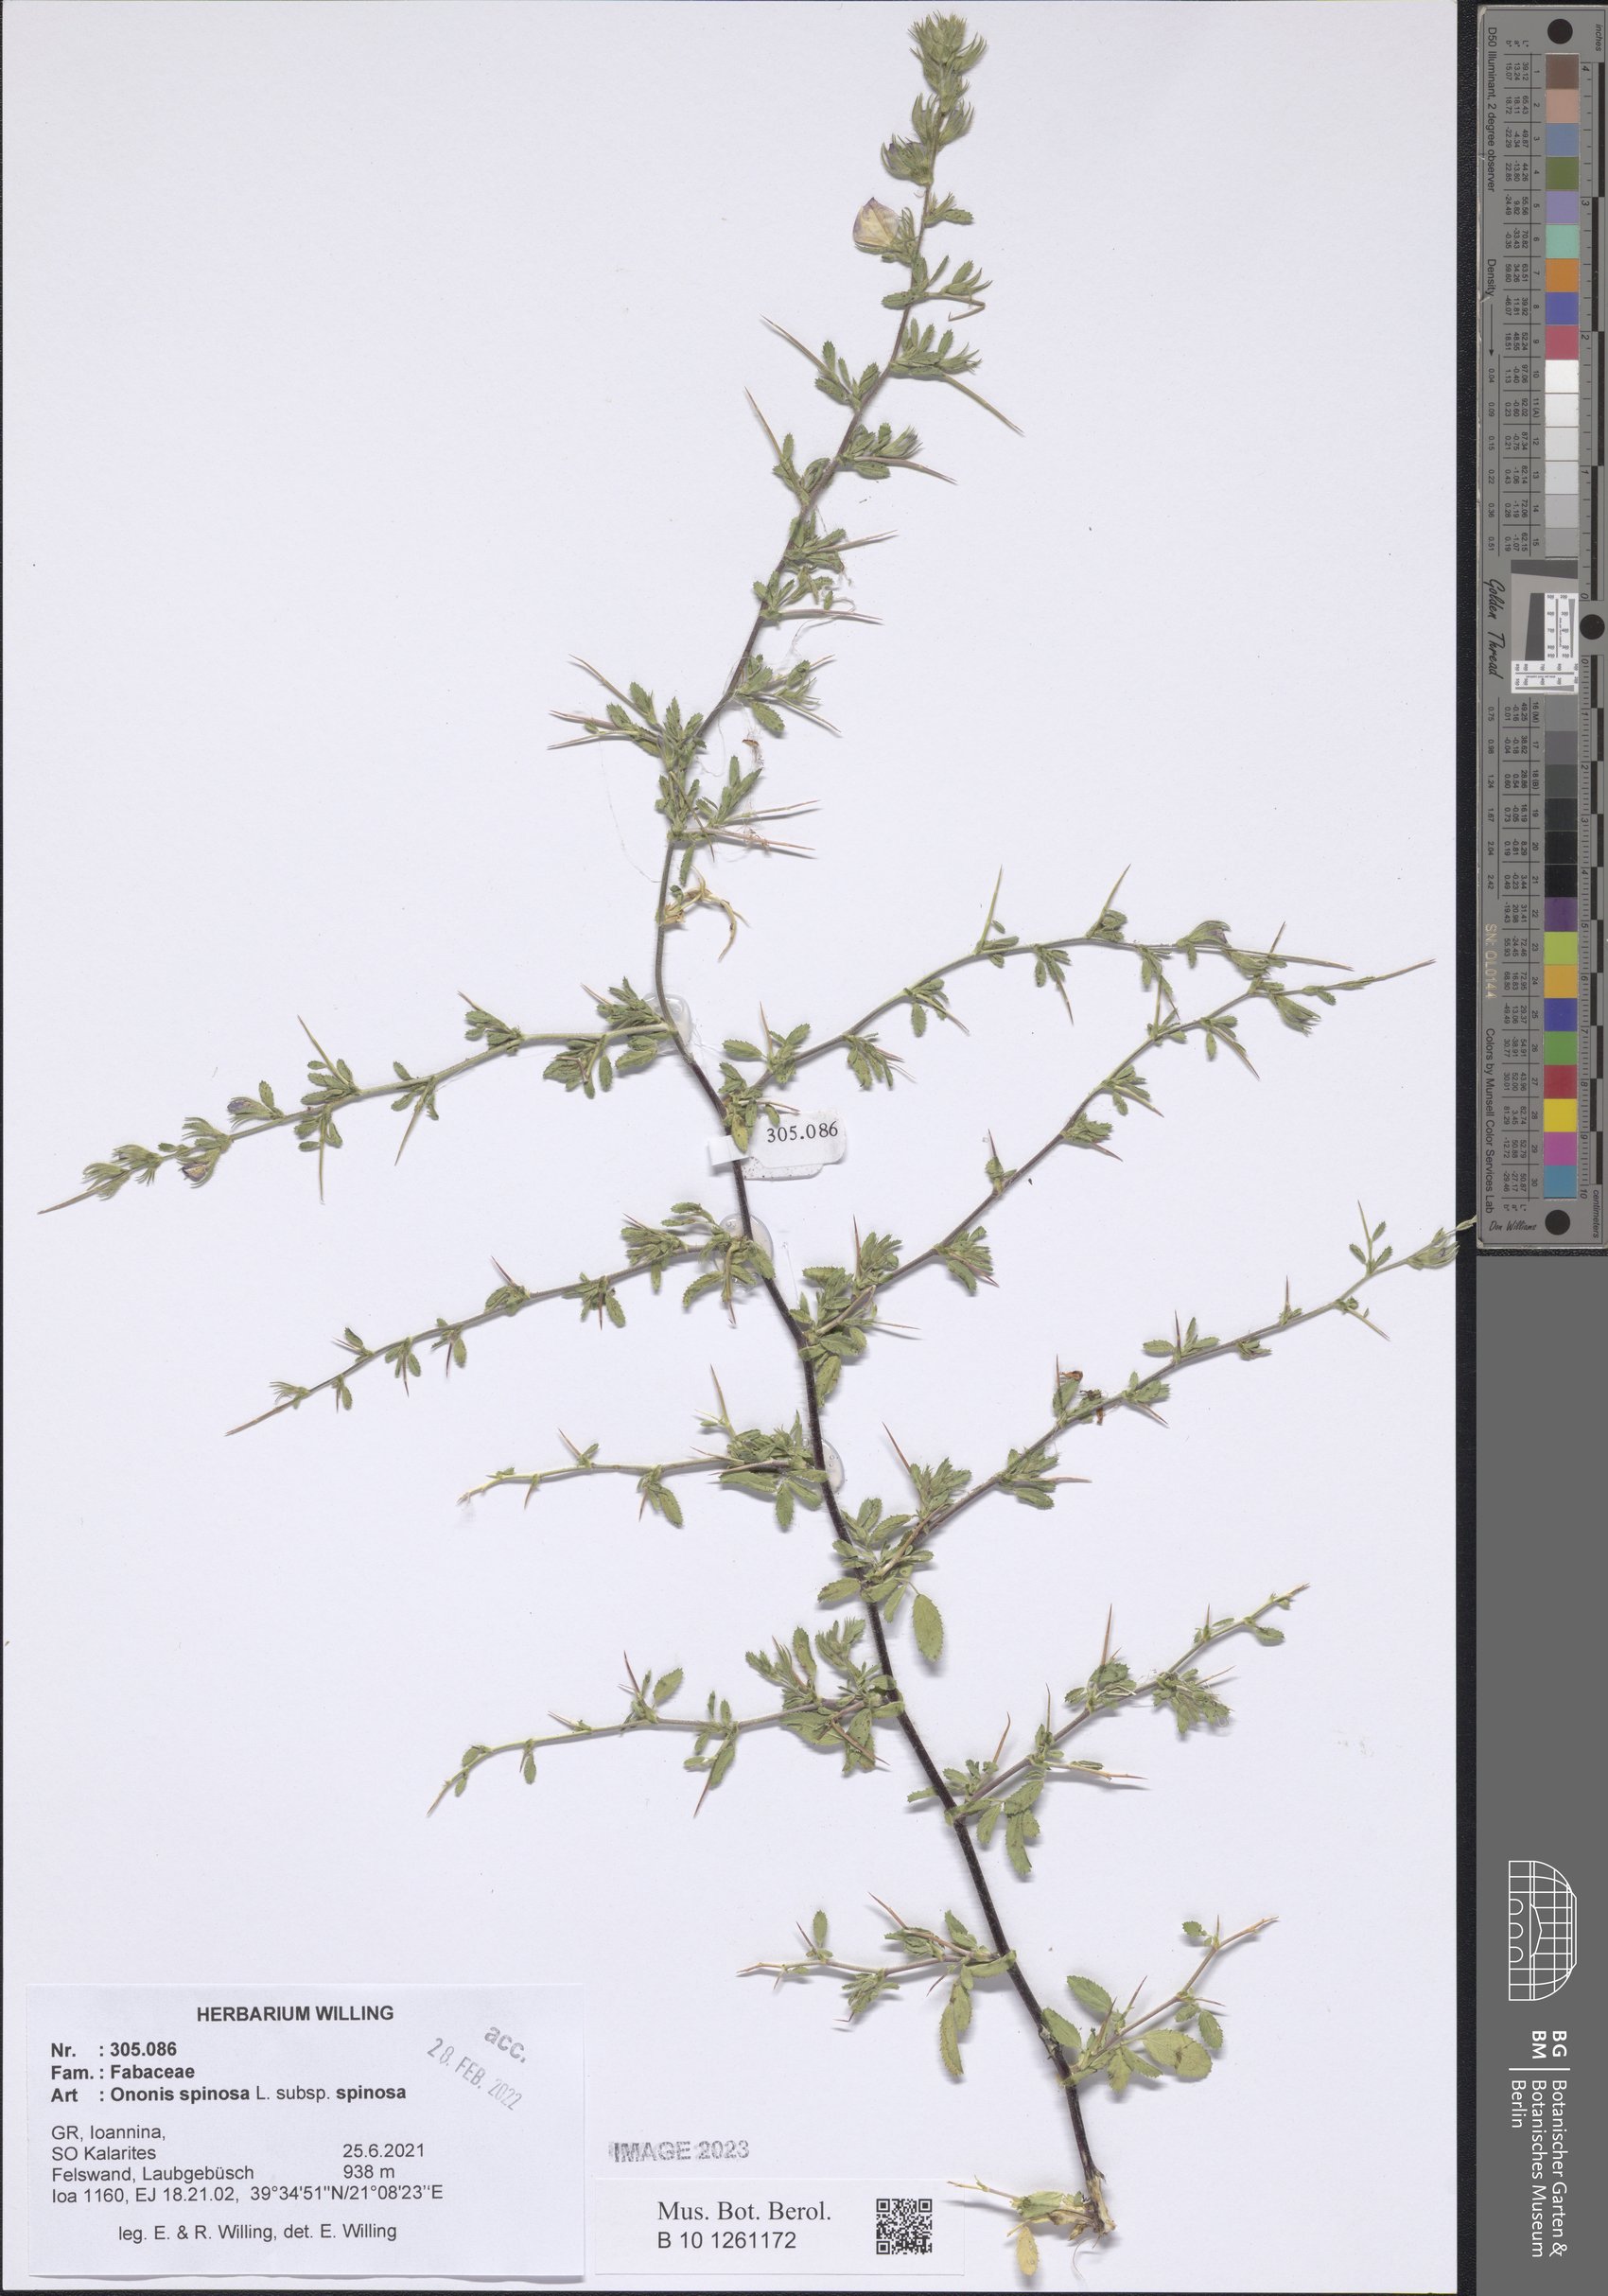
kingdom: Plantae
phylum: Tracheophyta
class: Magnoliopsida
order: Fabales
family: Fabaceae
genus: Ononis
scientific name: Ononis spinosa
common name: Spiny restharrow
